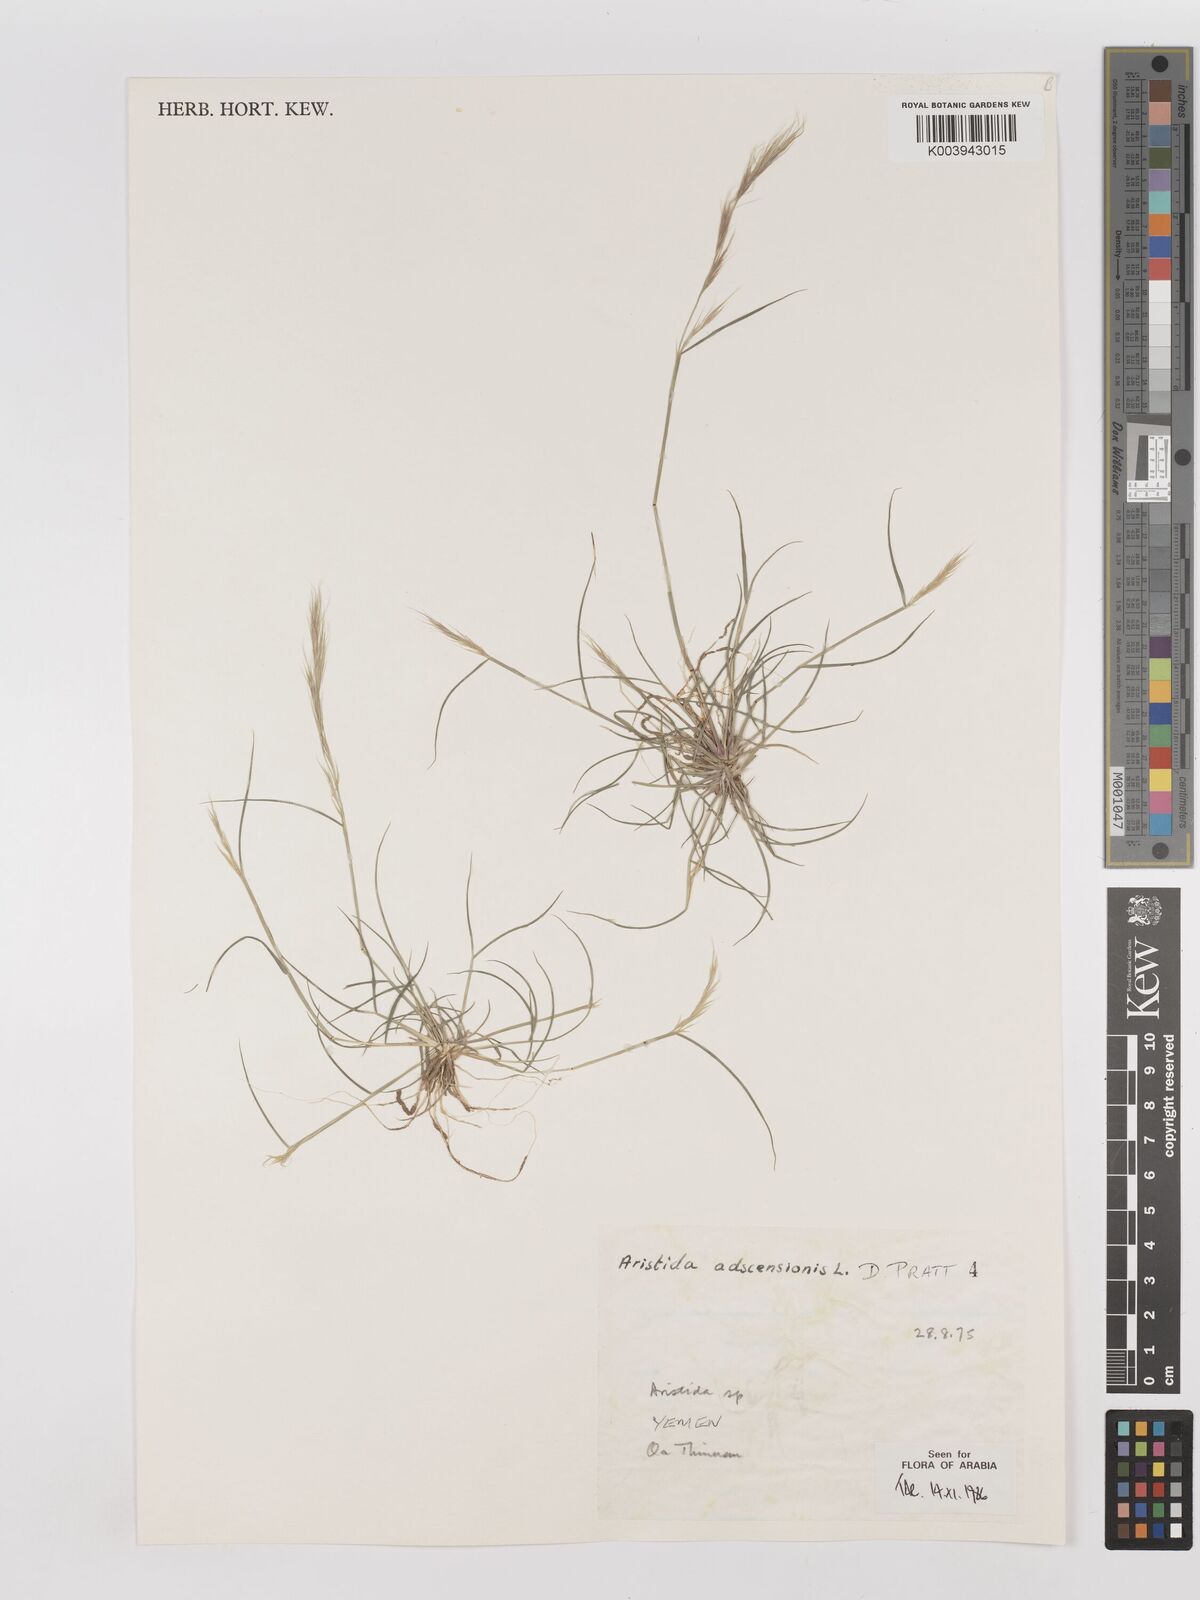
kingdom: Plantae
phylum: Tracheophyta
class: Liliopsida
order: Poales
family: Poaceae
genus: Aristida
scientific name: Aristida adscensionis
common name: Sixweeks threeawn
